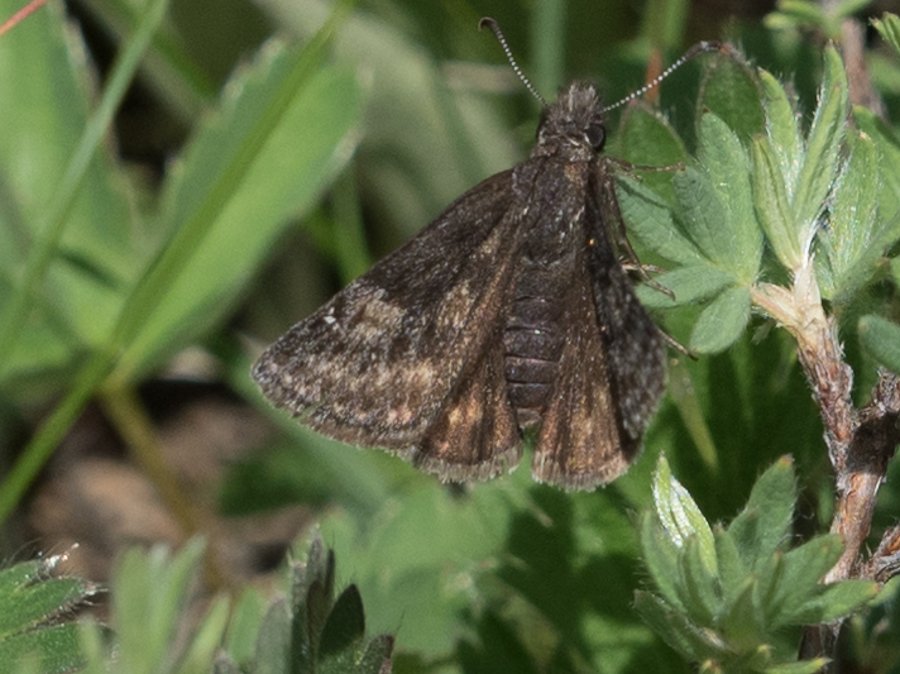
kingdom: Animalia
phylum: Arthropoda
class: Insecta
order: Lepidoptera
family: Hesperiidae
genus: Gesta
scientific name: Gesta
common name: Persius Duskywing
